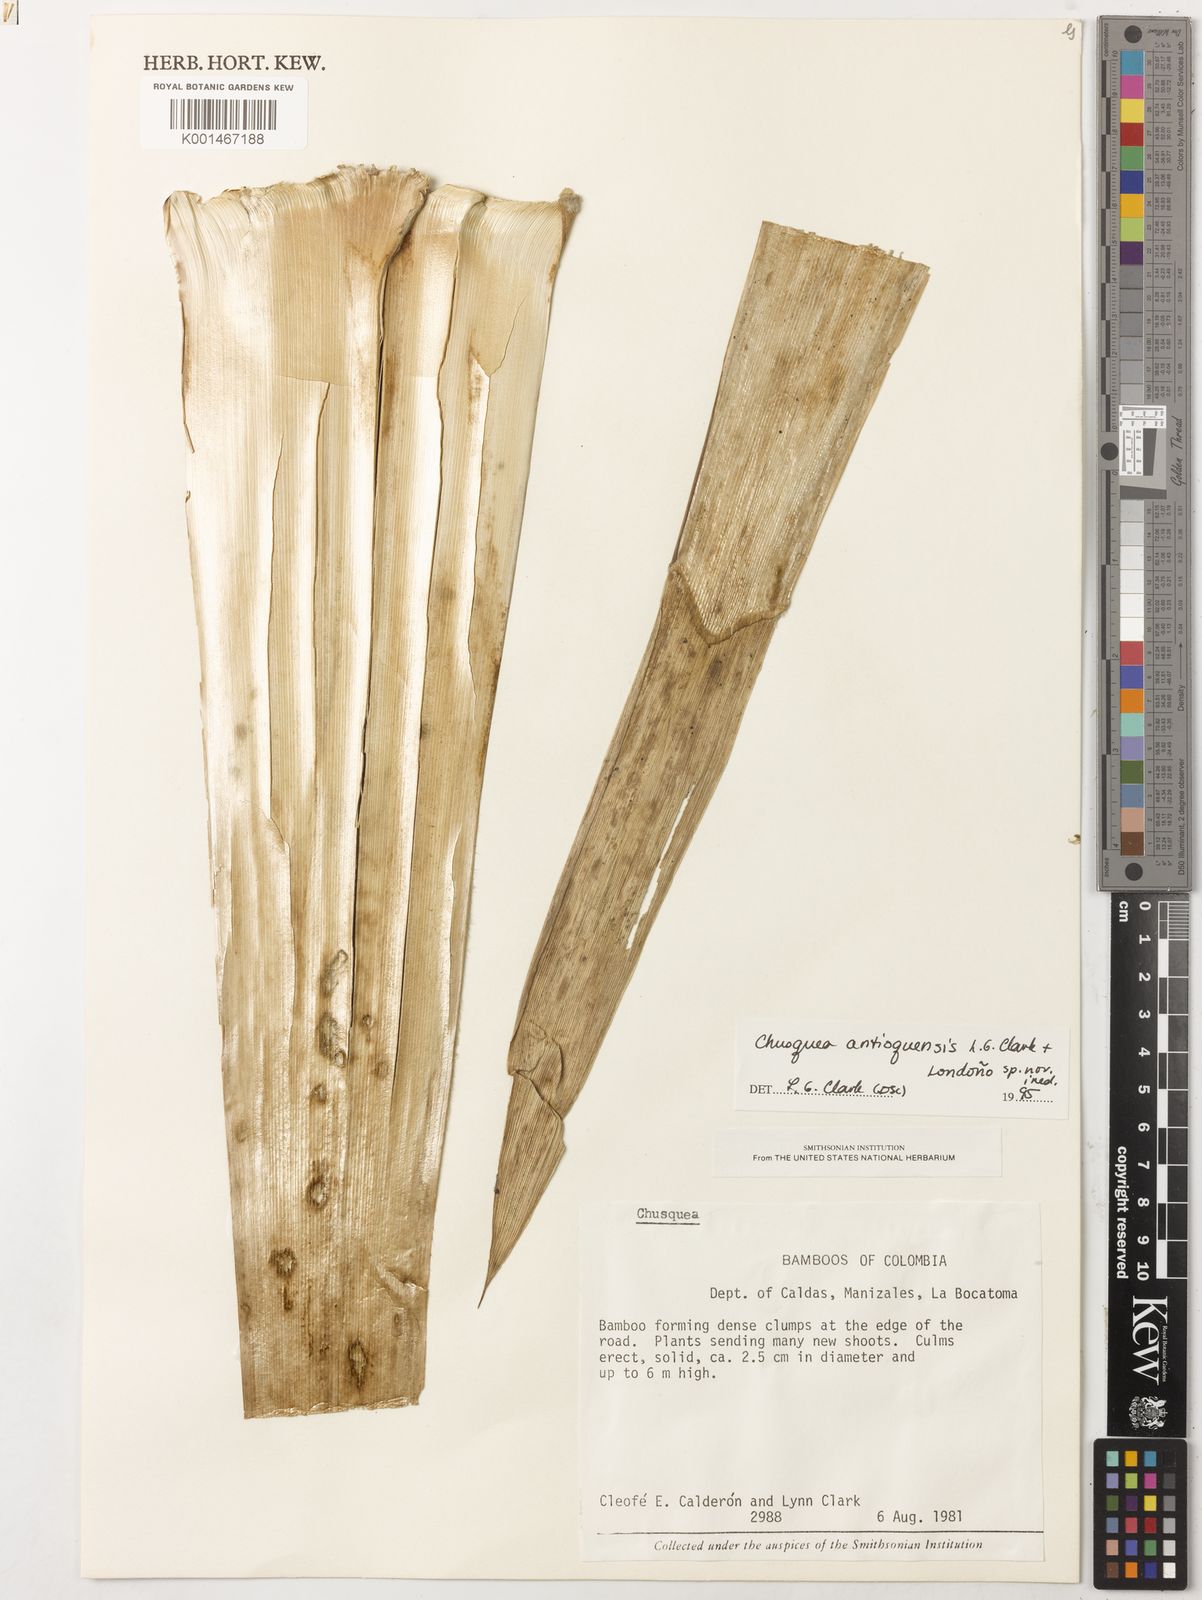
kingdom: Plantae
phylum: Tracheophyta
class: Liliopsida
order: Poales
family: Poaceae
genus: Chusquea
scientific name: Chusquea
